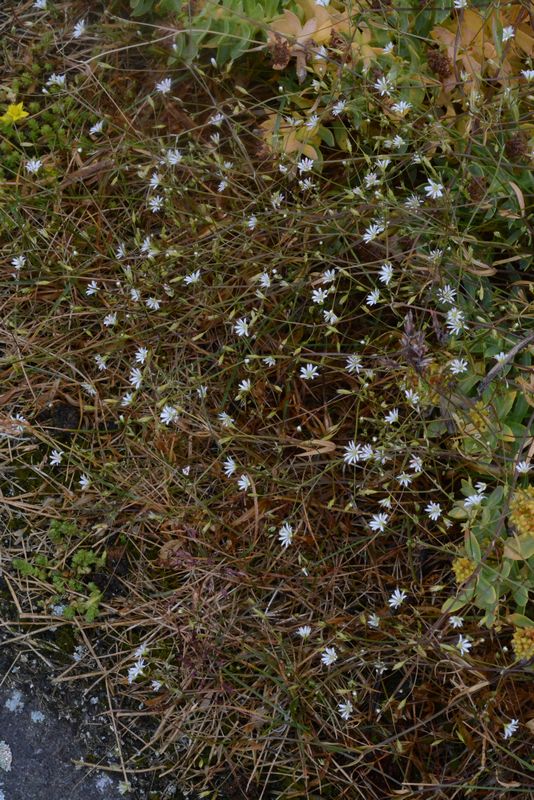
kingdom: Plantae
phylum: Tracheophyta
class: Magnoliopsida
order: Caryophyllales
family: Caryophyllaceae
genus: Stellaria
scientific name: Stellaria graminea
